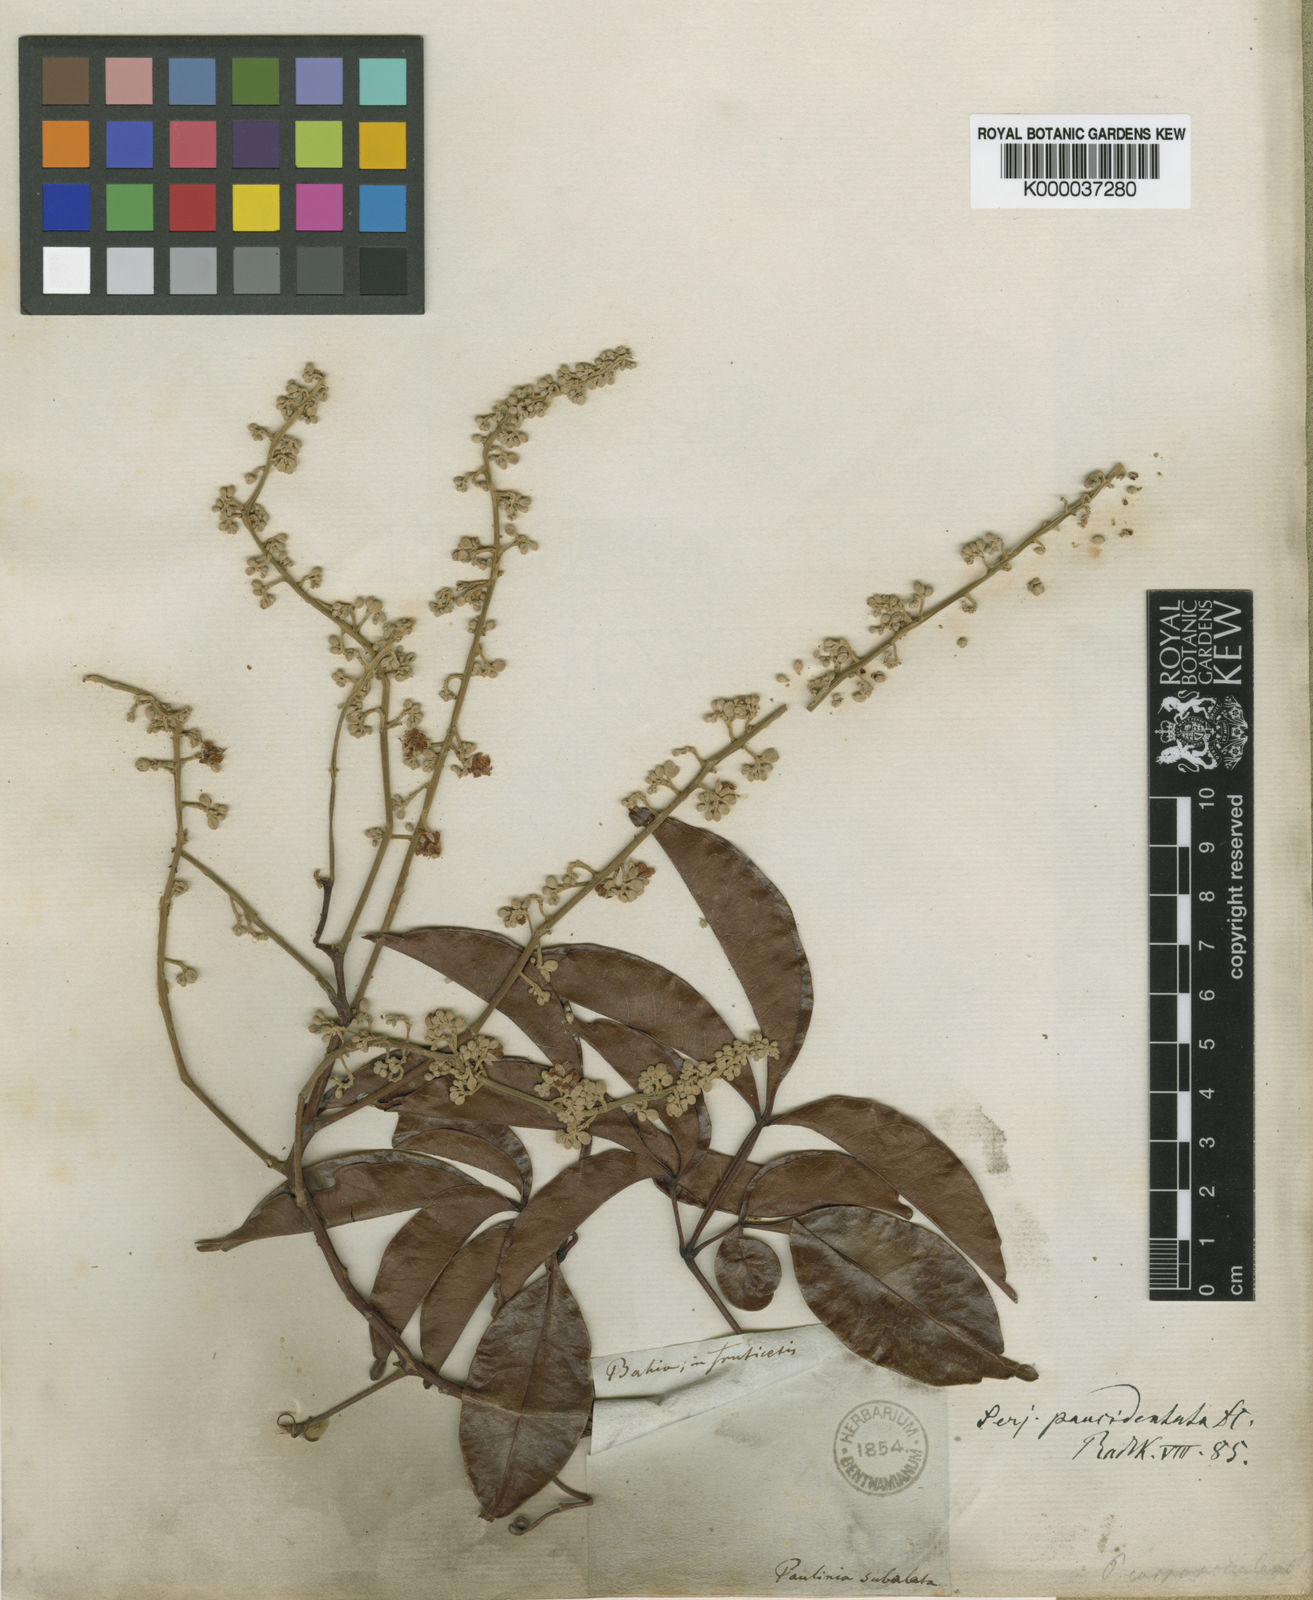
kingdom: Plantae
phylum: Tracheophyta
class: Magnoliopsida
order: Sapindales
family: Sapindaceae
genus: Serjania
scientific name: Serjania paucidentata
